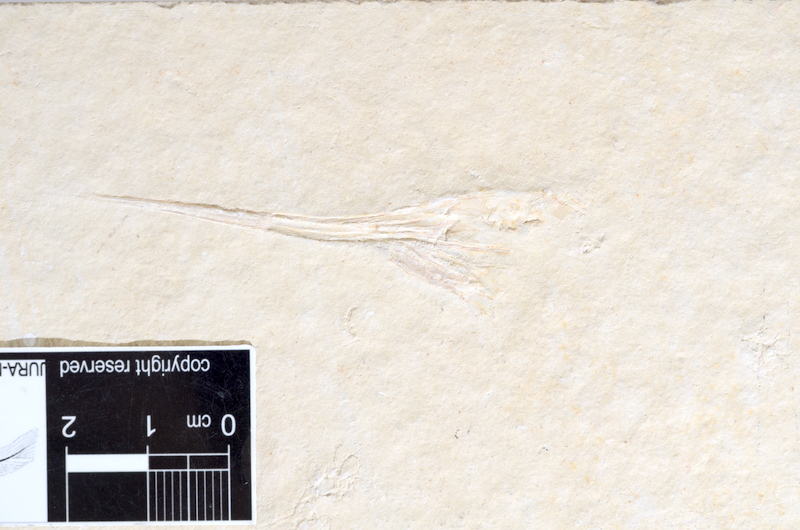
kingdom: Animalia
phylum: Chordata
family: Aspidorhynchidae
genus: Aspidorhynchus
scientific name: Aspidorhynchus acutirostris
